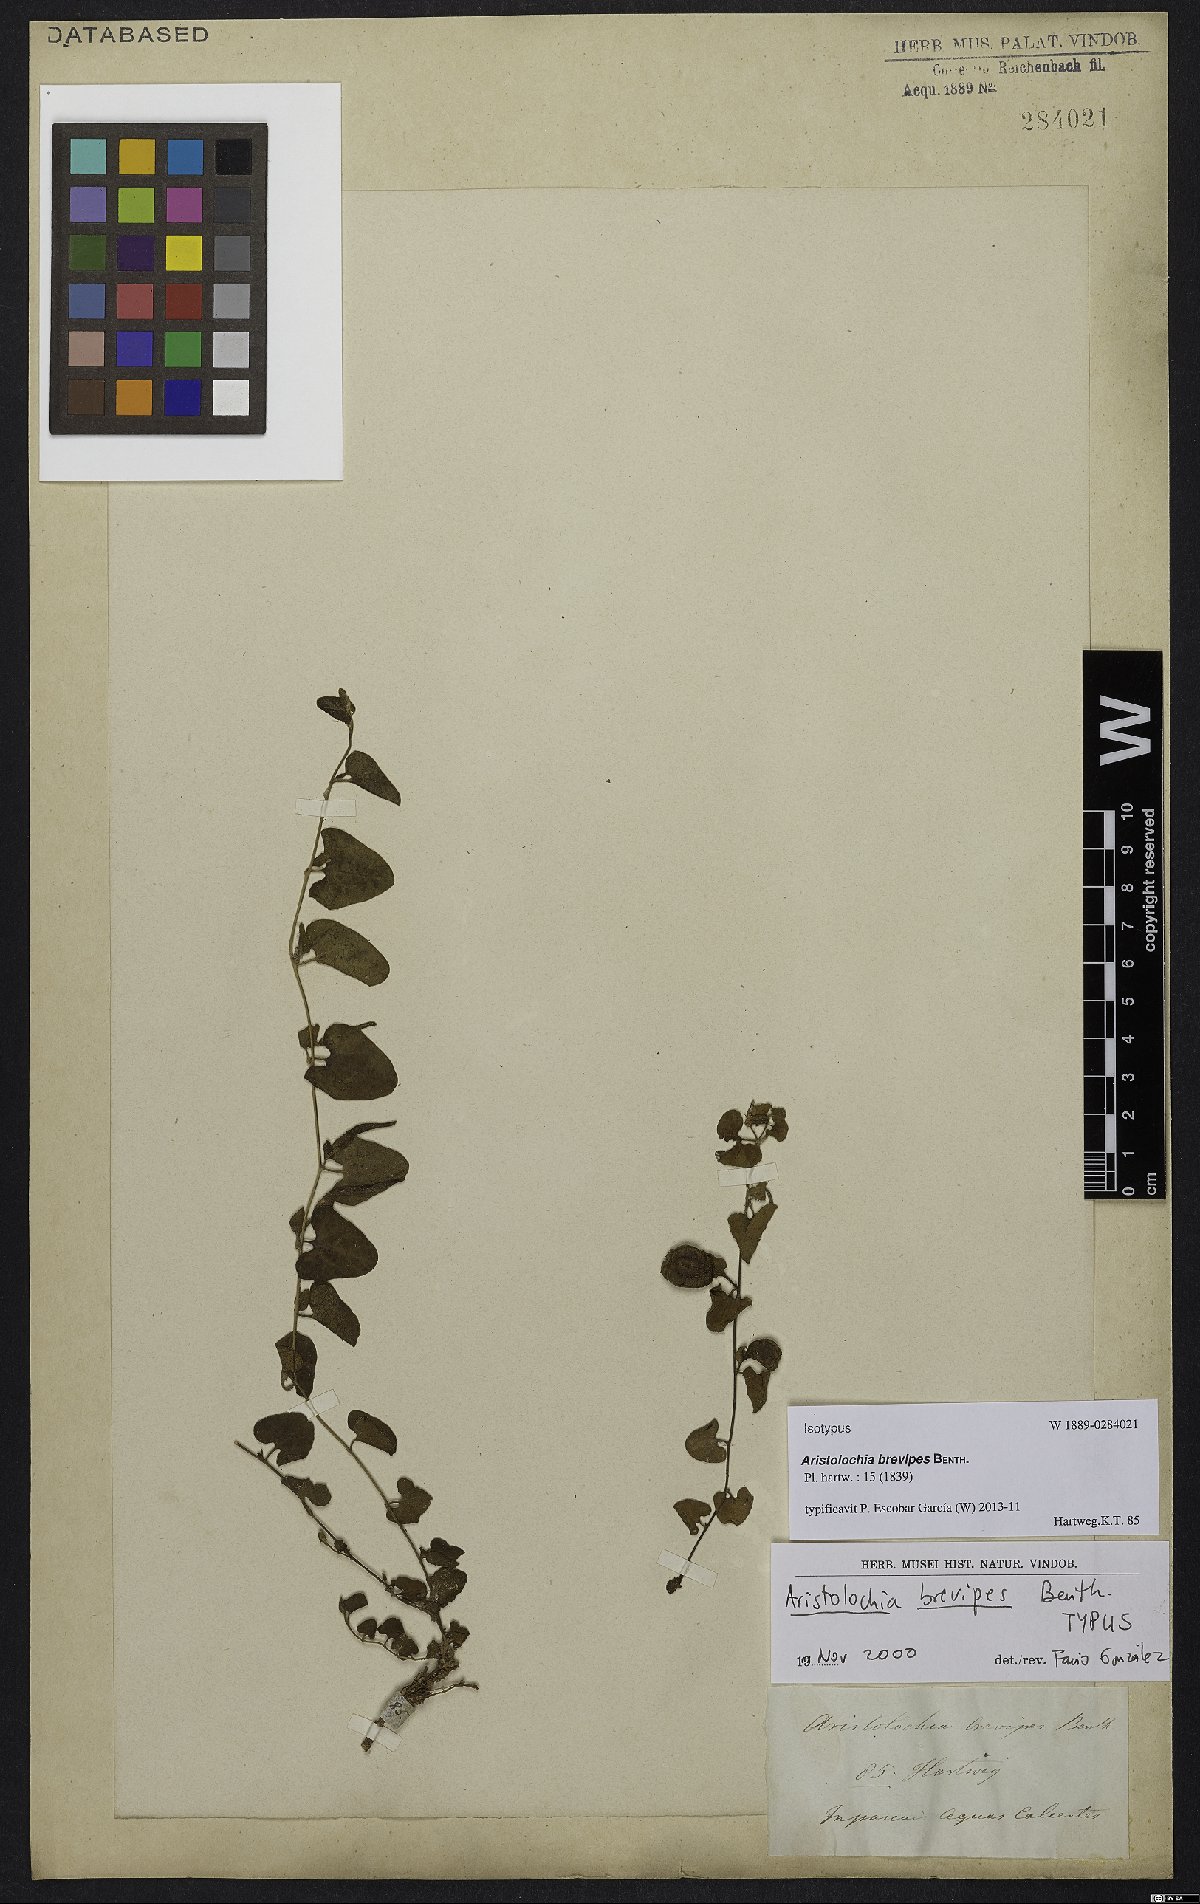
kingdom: Plantae
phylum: Tracheophyta
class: Magnoliopsida
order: Piperales
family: Aristolochiaceae
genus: Aristolochia
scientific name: Aristolochia brevipes
